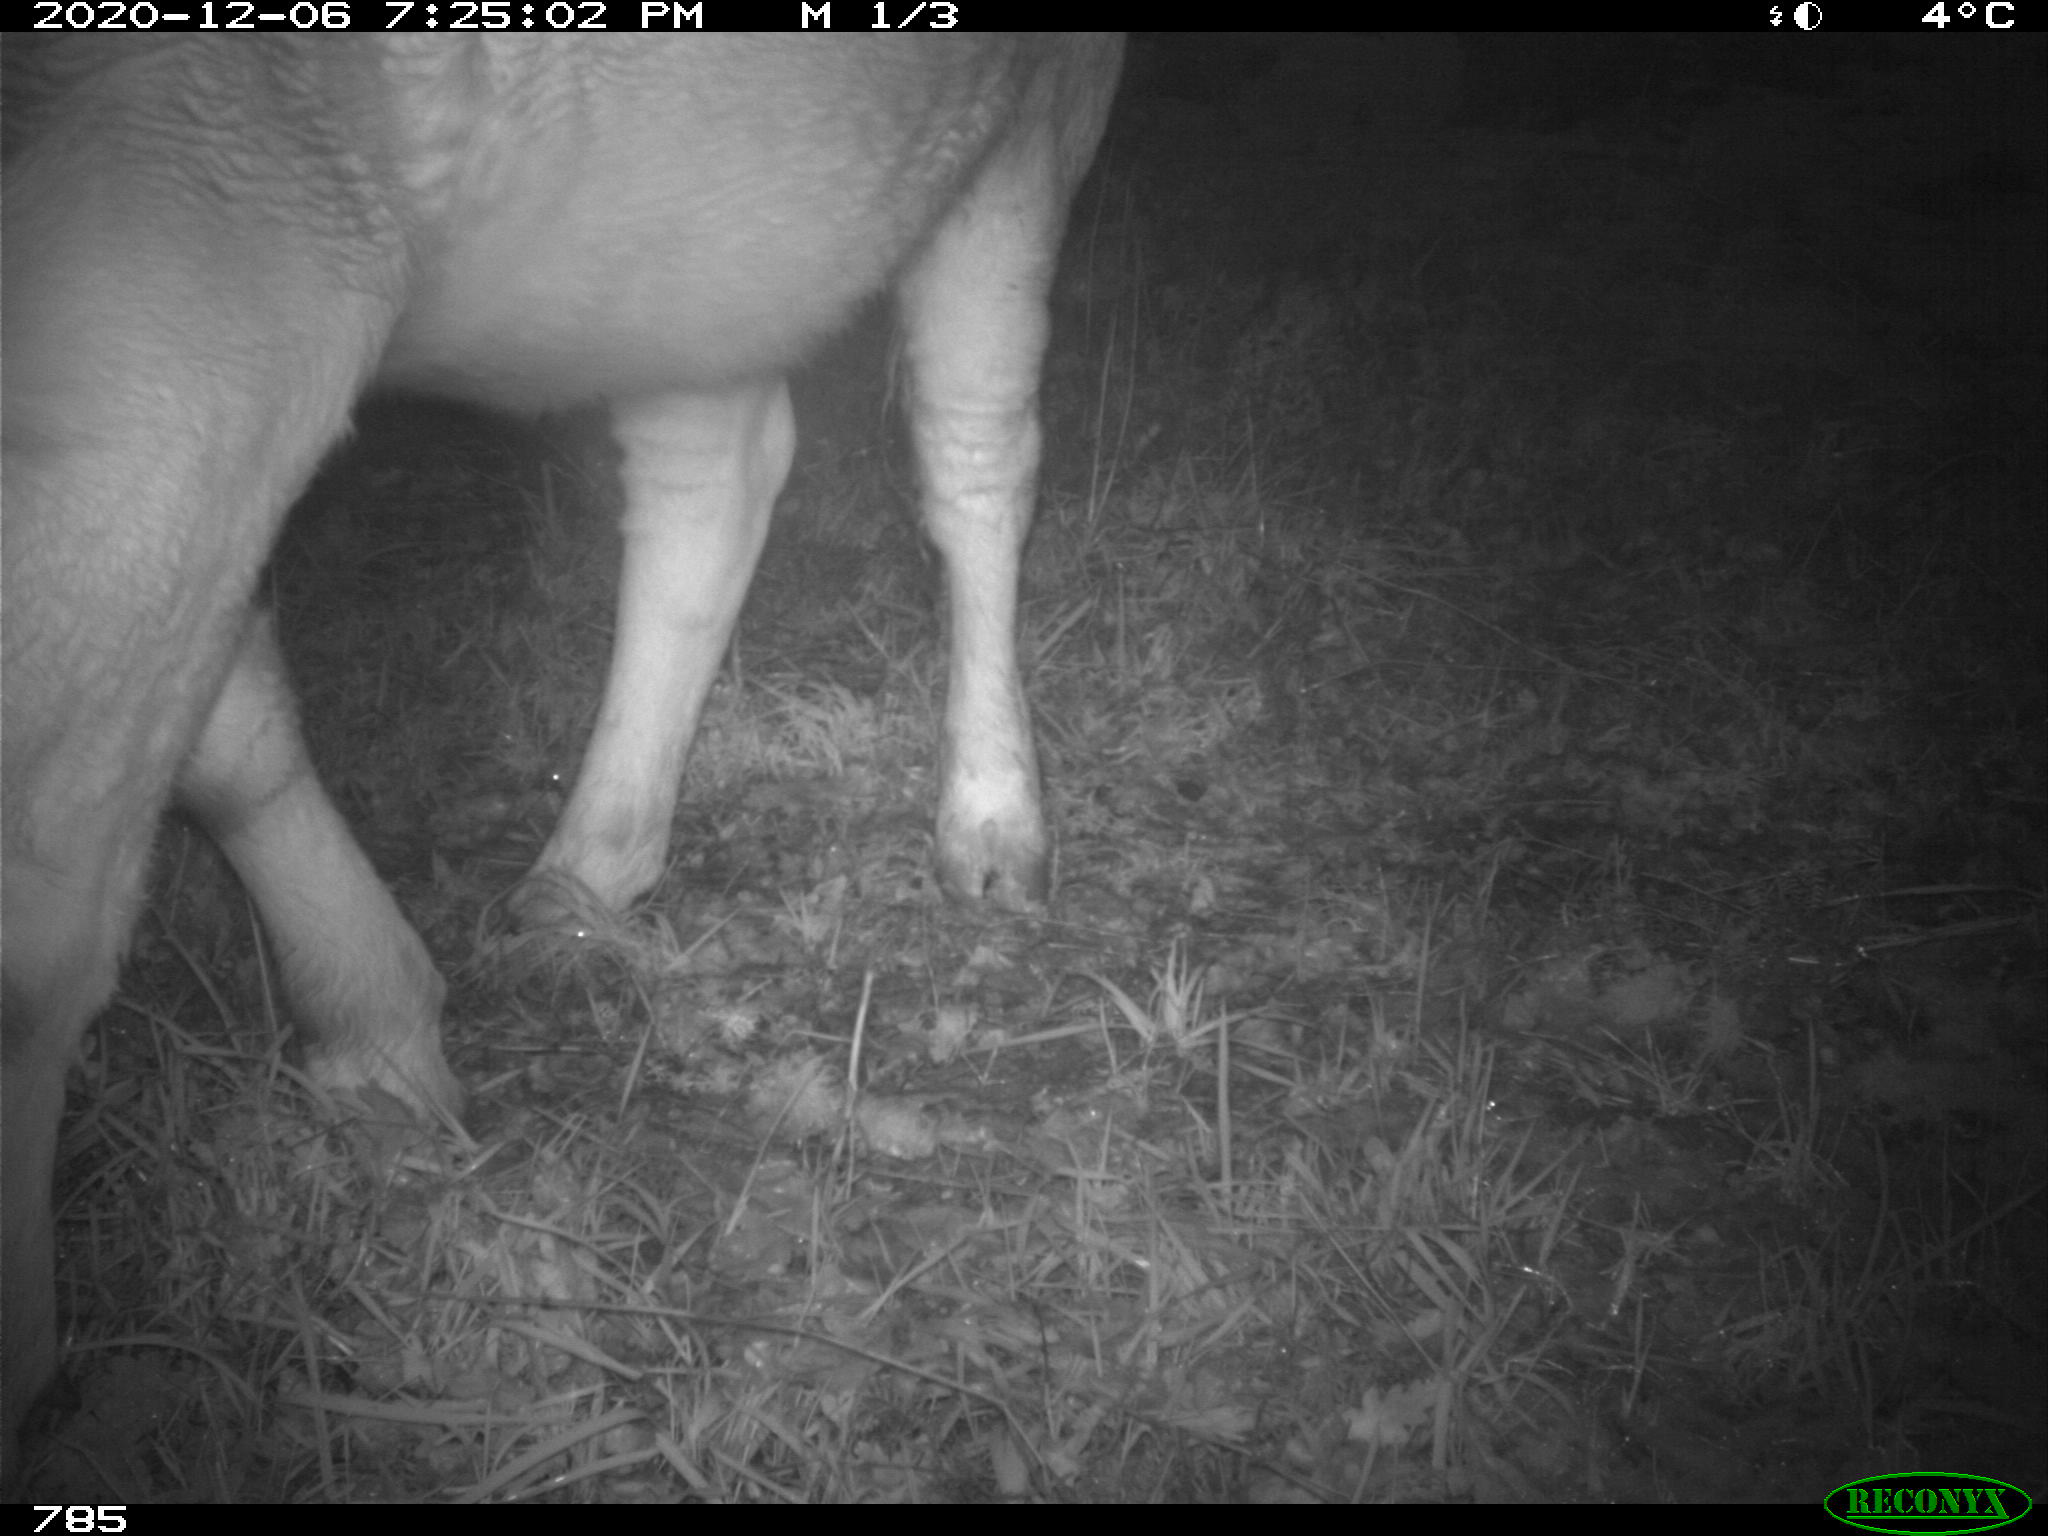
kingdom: Animalia
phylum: Chordata
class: Mammalia
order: Artiodactyla
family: Bovidae
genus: Bos
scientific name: Bos taurus
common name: Domesticated cattle
